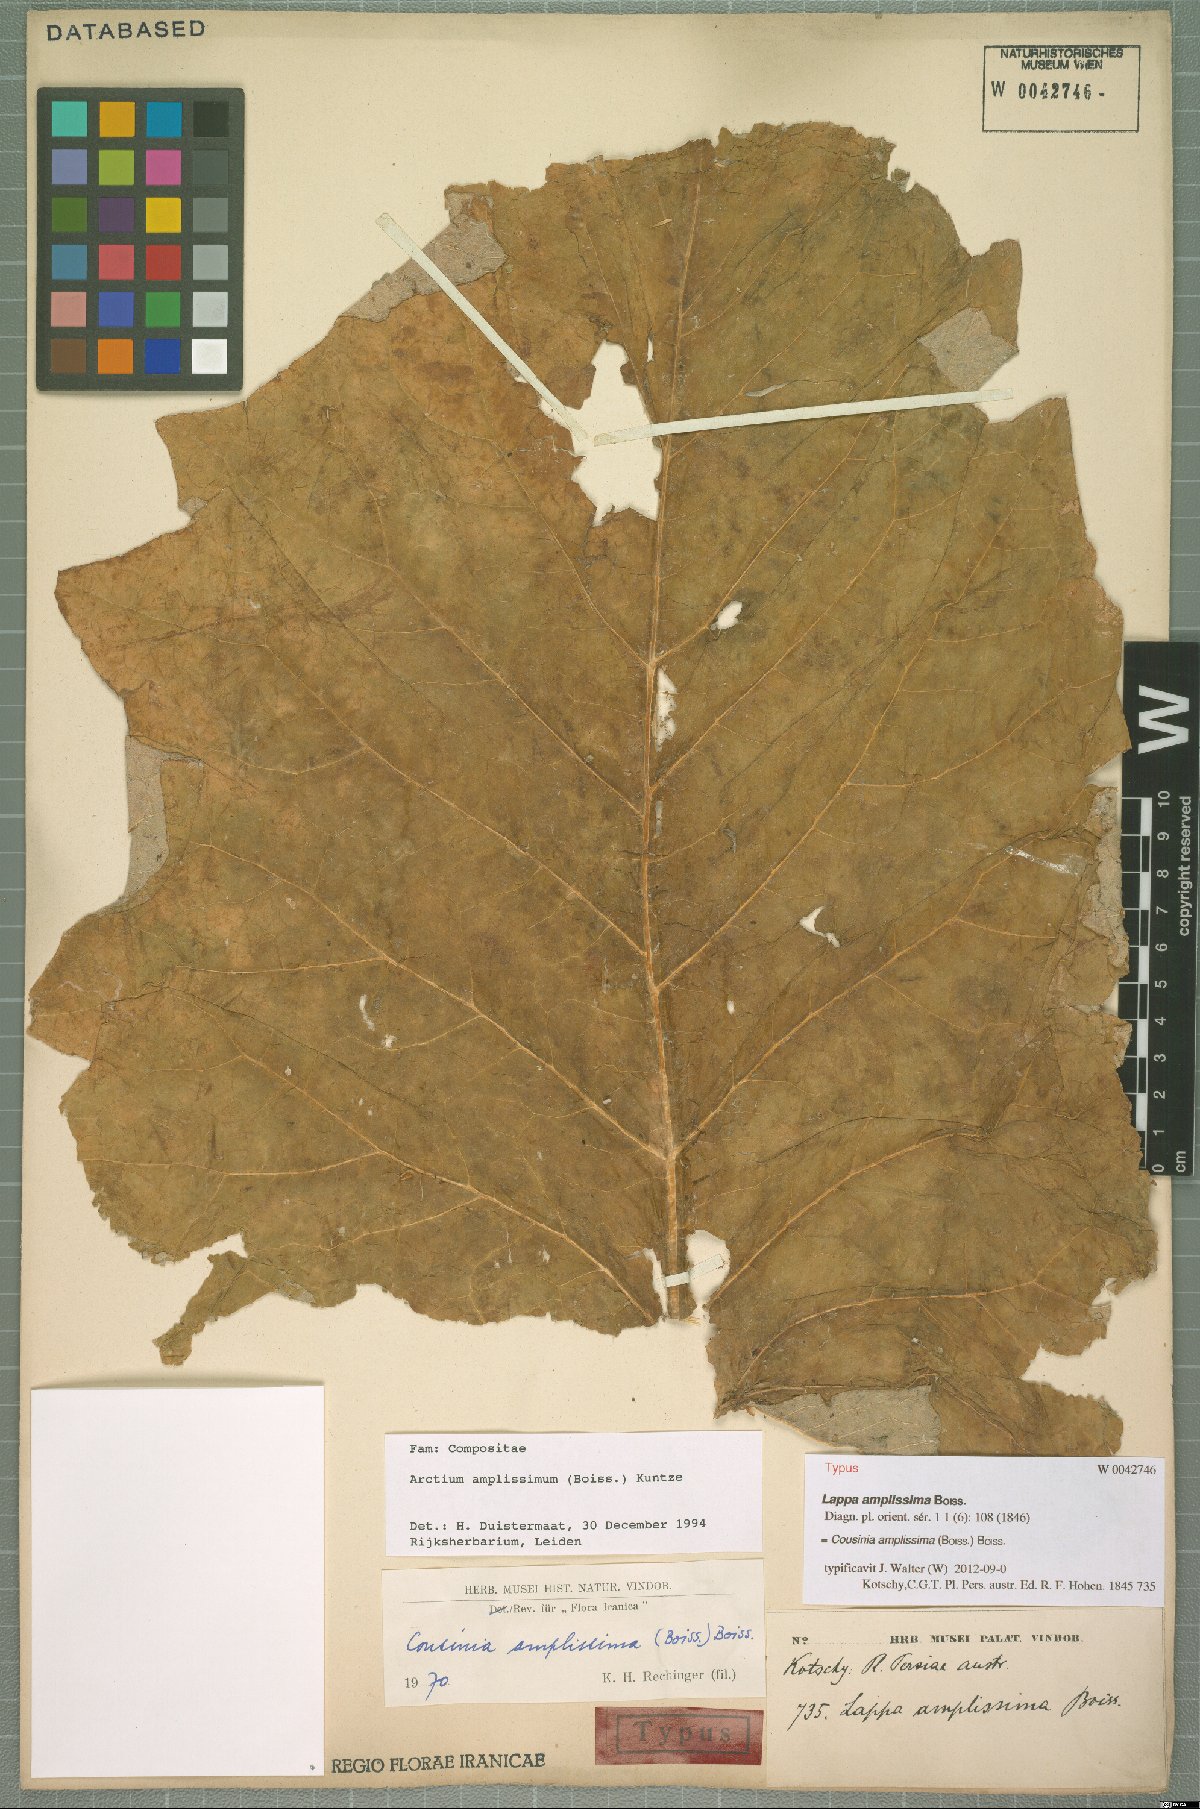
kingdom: Plantae
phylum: Tracheophyta
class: Magnoliopsida
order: Asterales
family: Asteraceae
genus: Arctium
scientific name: Arctium amplissimum
